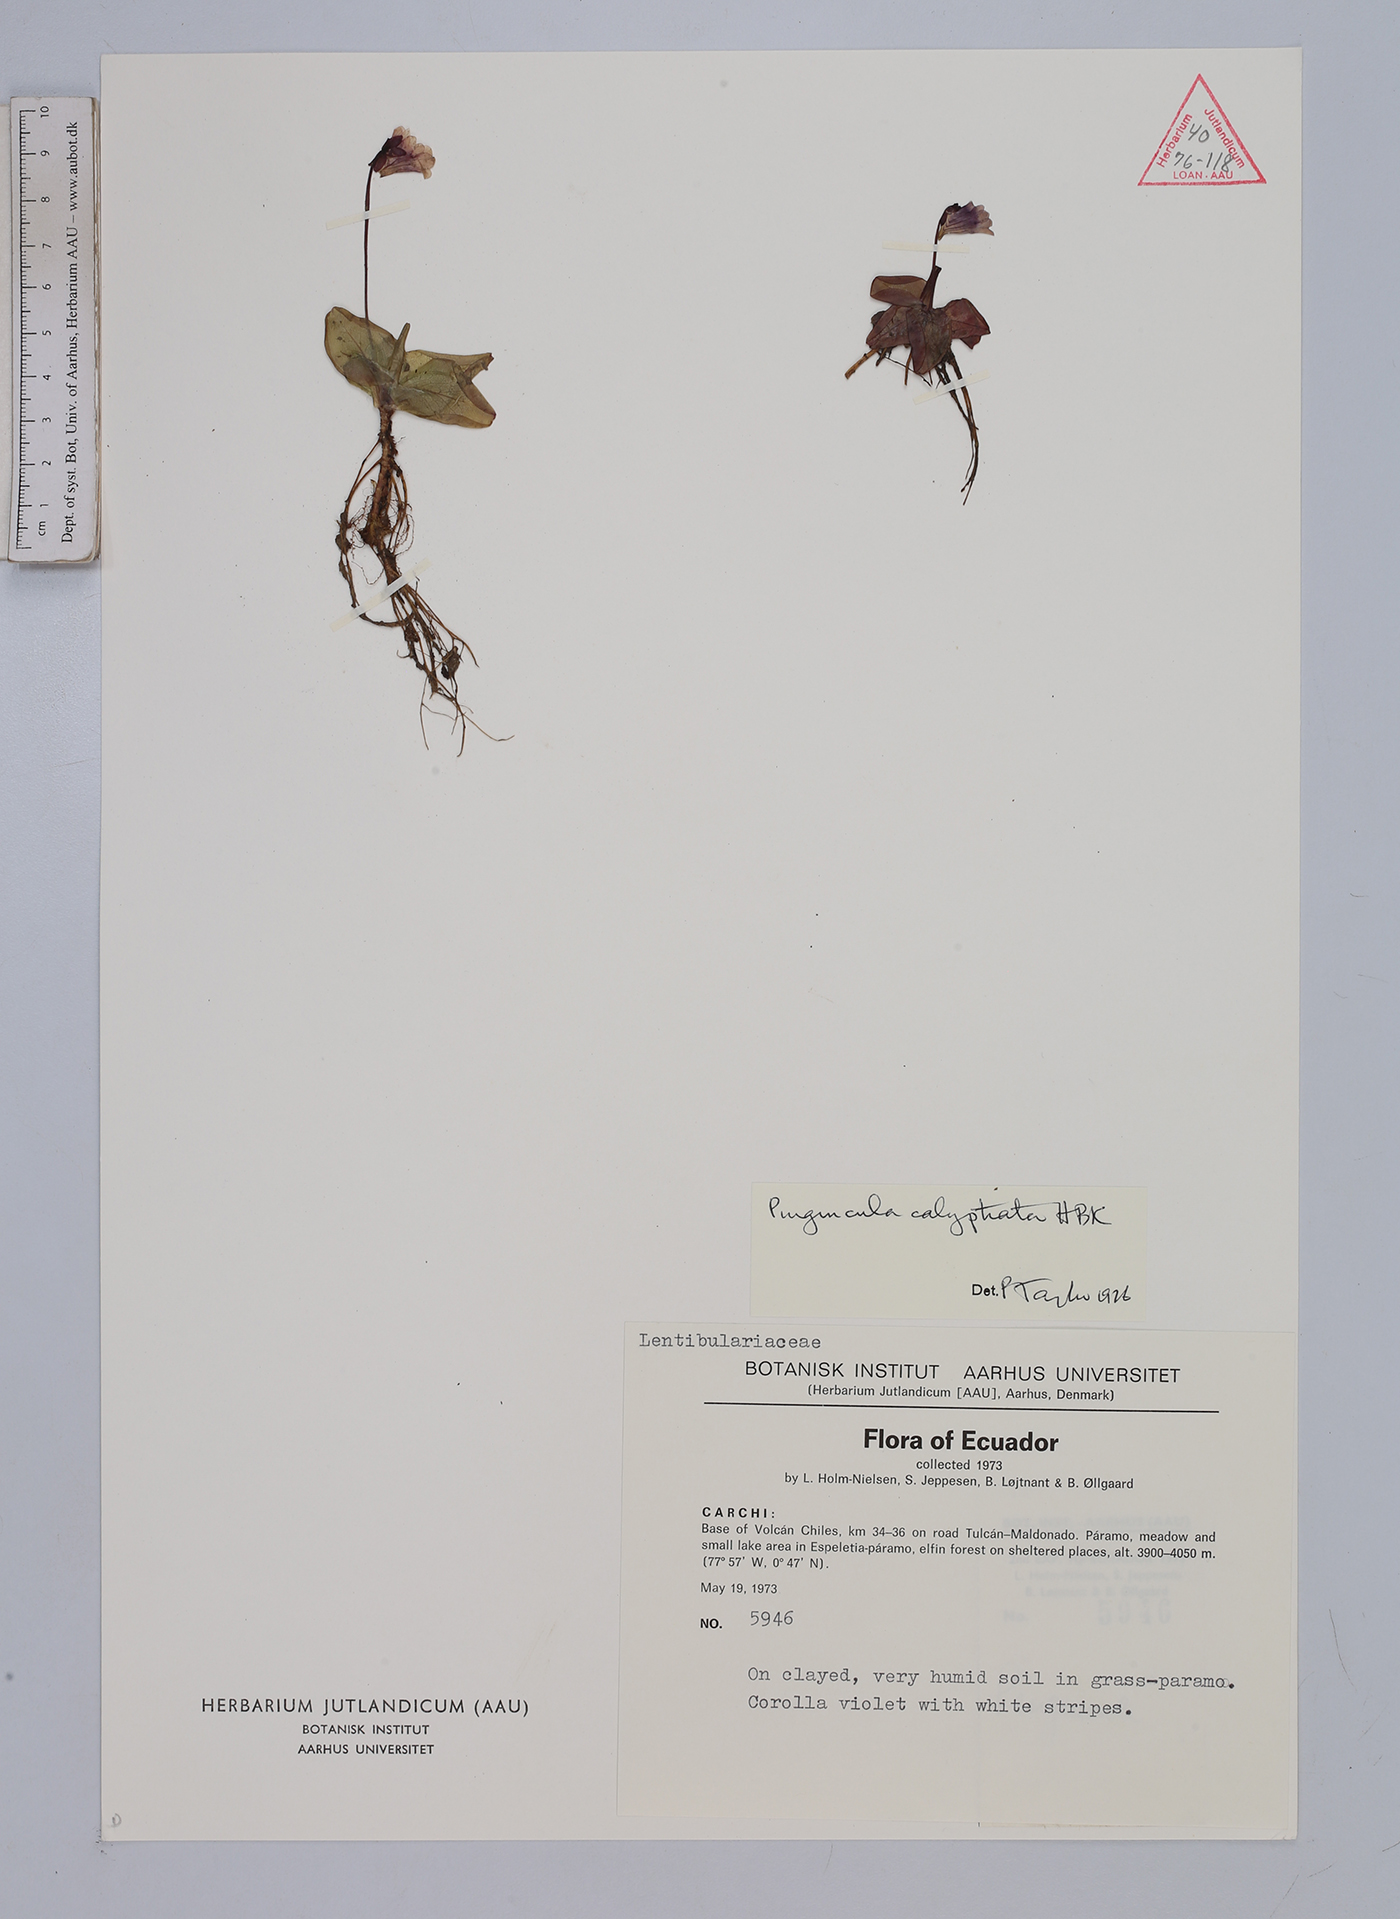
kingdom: Plantae
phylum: Tracheophyta
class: Magnoliopsida
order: Lamiales
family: Lentibulariaceae
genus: Pinguicula
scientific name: Pinguicula calyptrata
